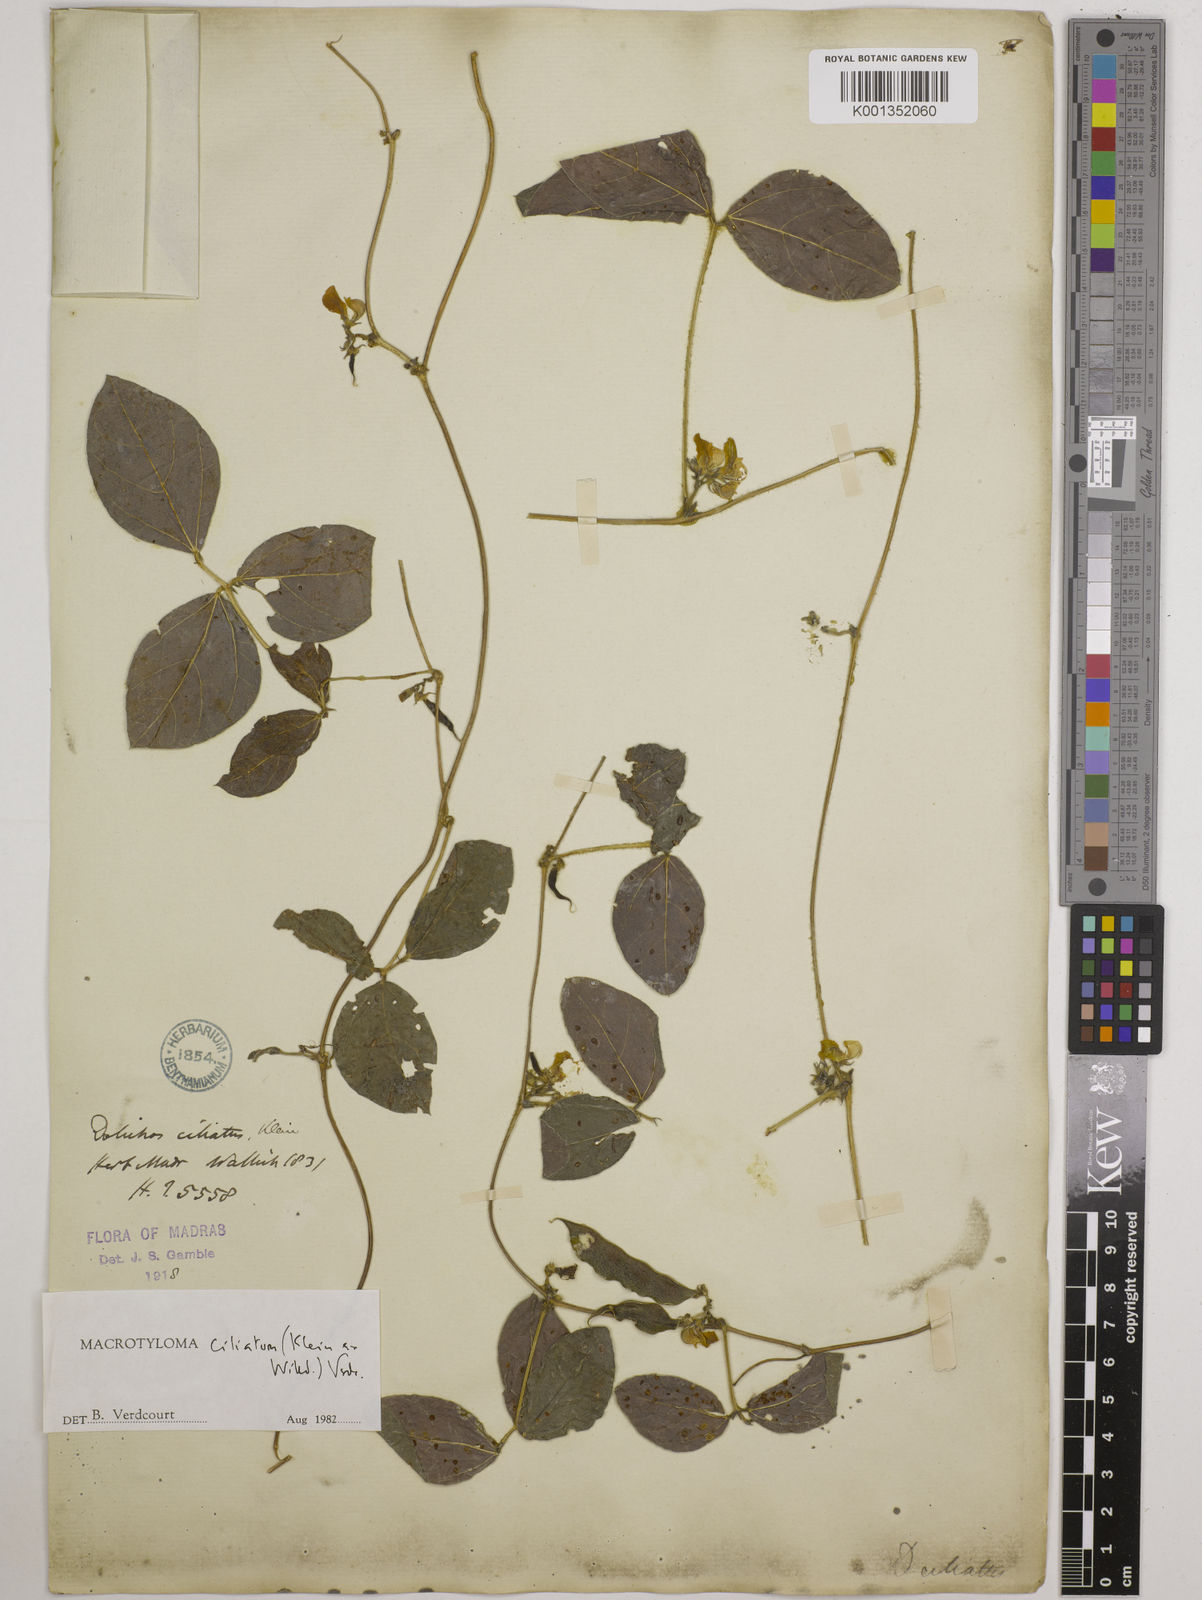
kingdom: Plantae
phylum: Tracheophyta
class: Magnoliopsida
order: Fabales
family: Fabaceae
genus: Macrotyloma
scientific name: Macrotyloma ciliatum
